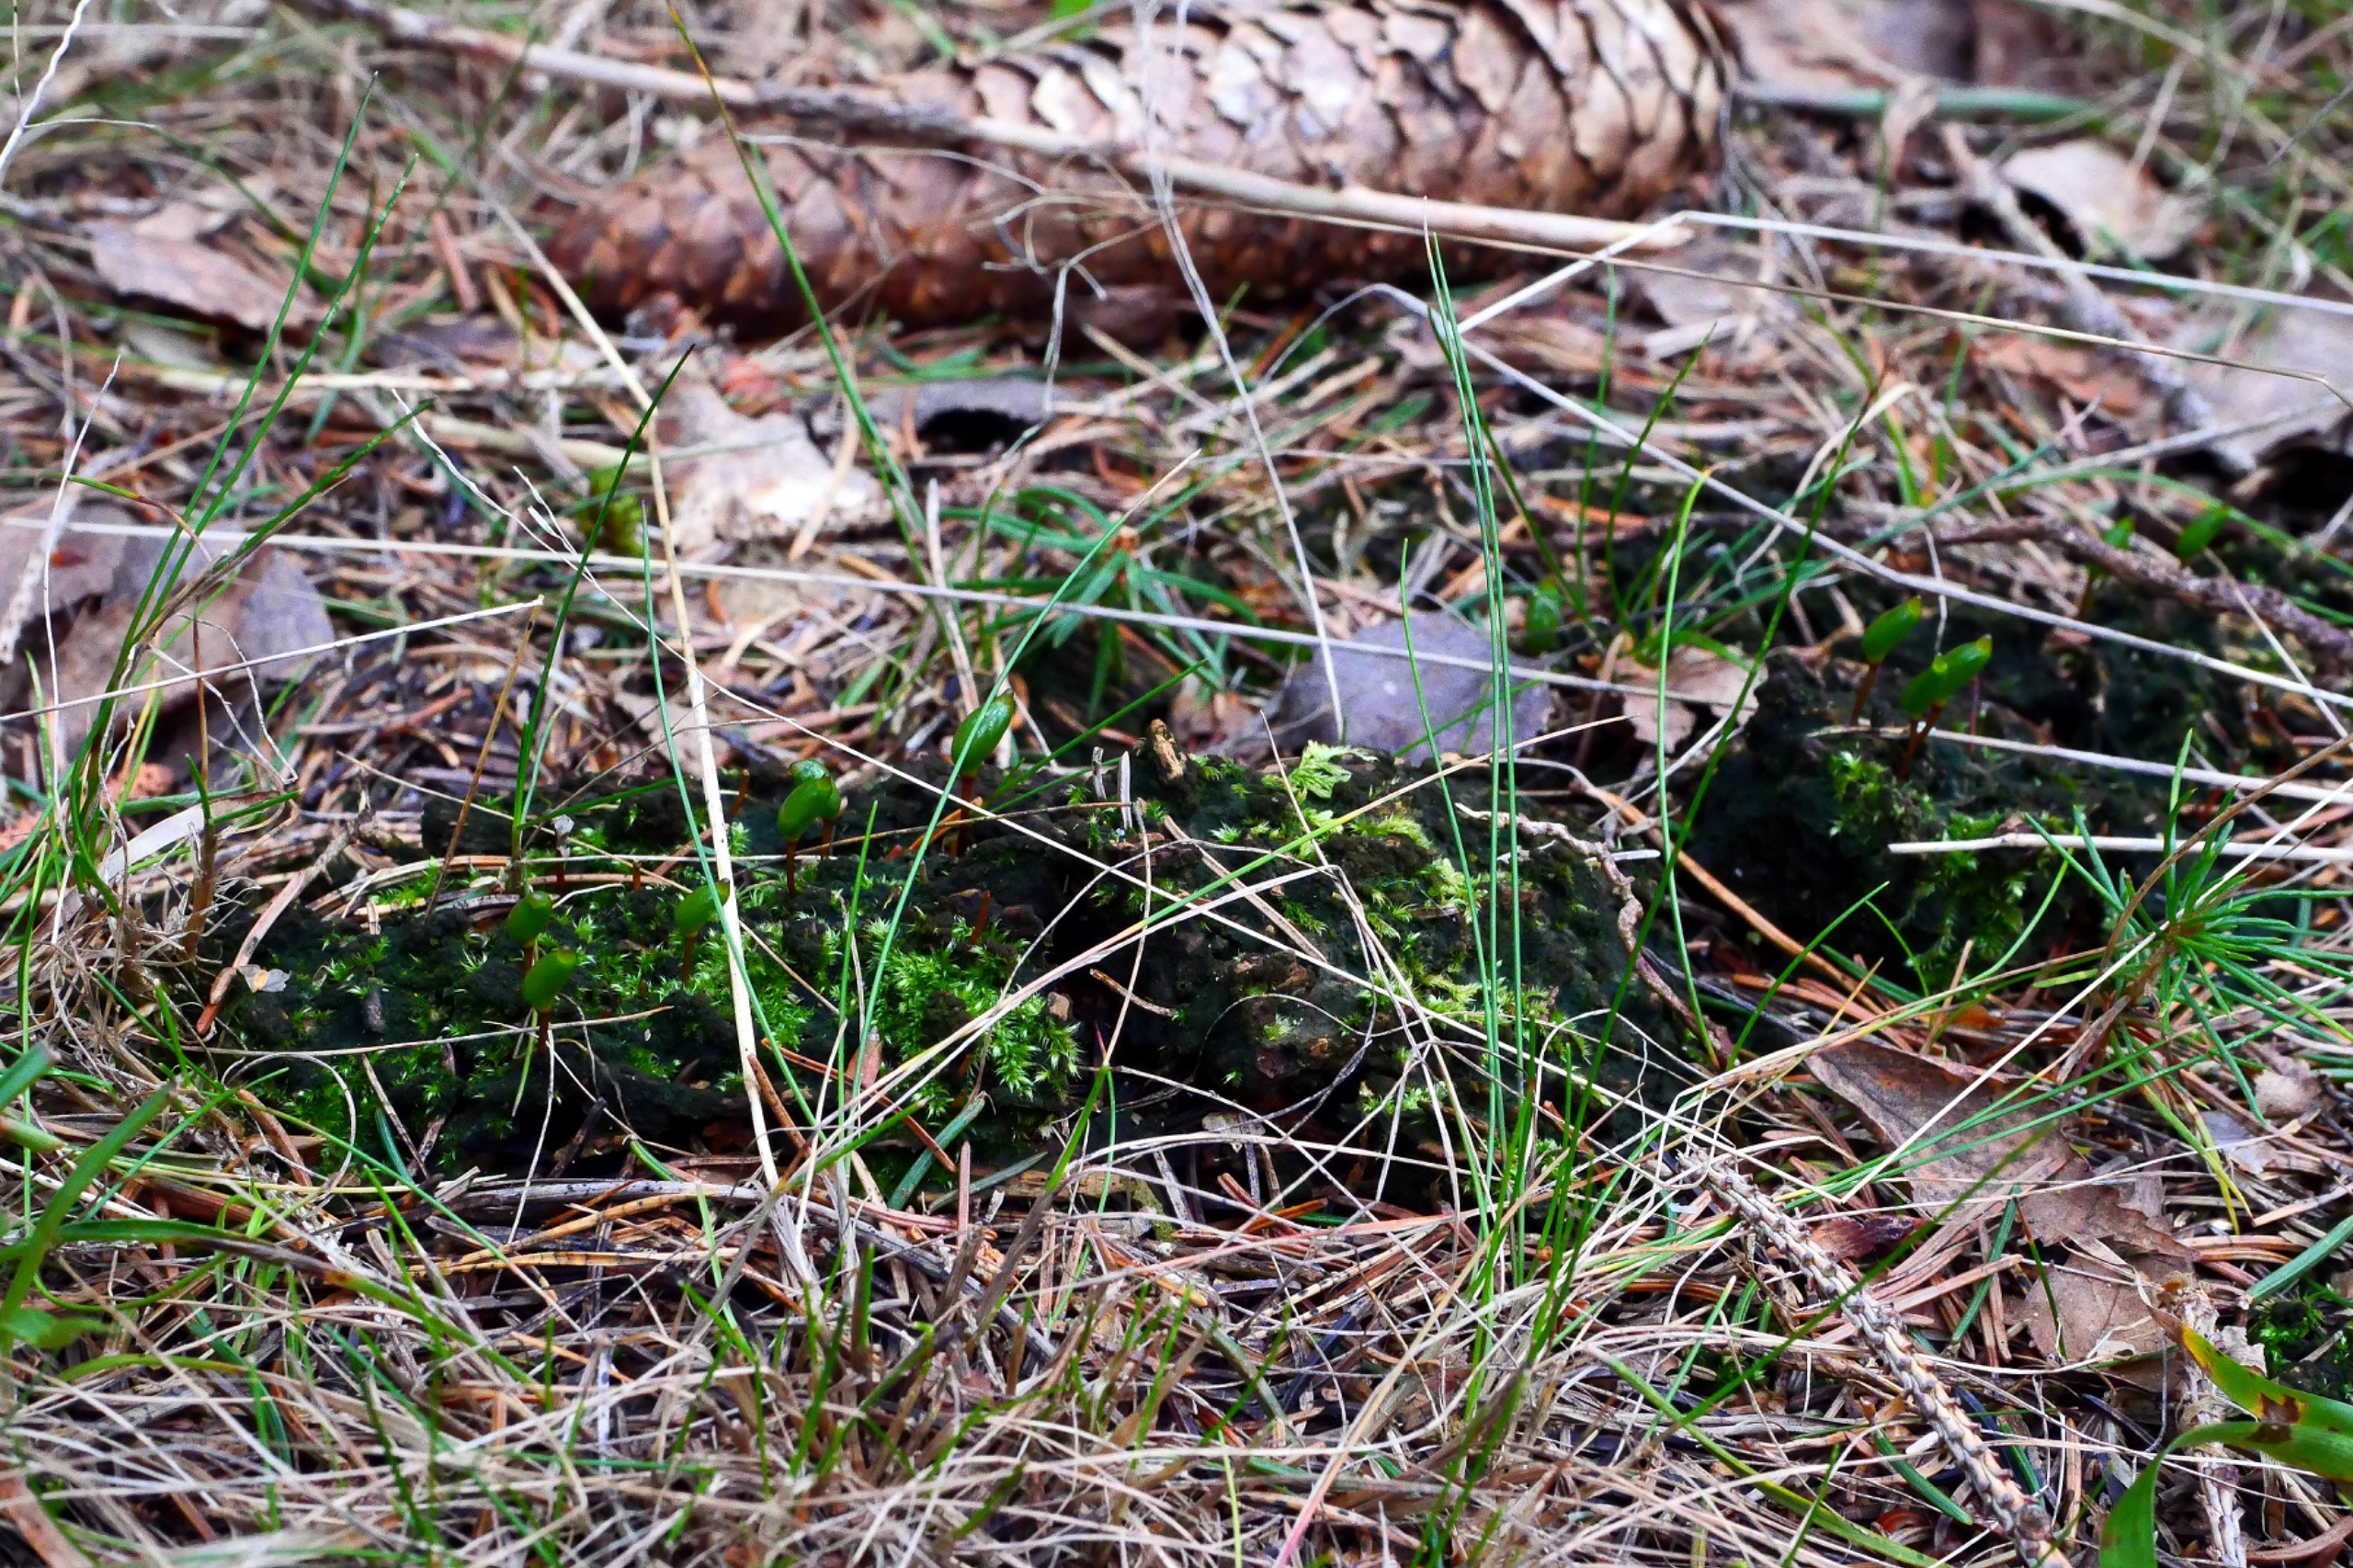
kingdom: Plantae
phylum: Bryophyta
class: Bryopsida
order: Buxbaumiales
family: Buxbaumiaceae
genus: Buxbaumia
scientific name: Buxbaumia viridis
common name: Grøn buxbaumia
